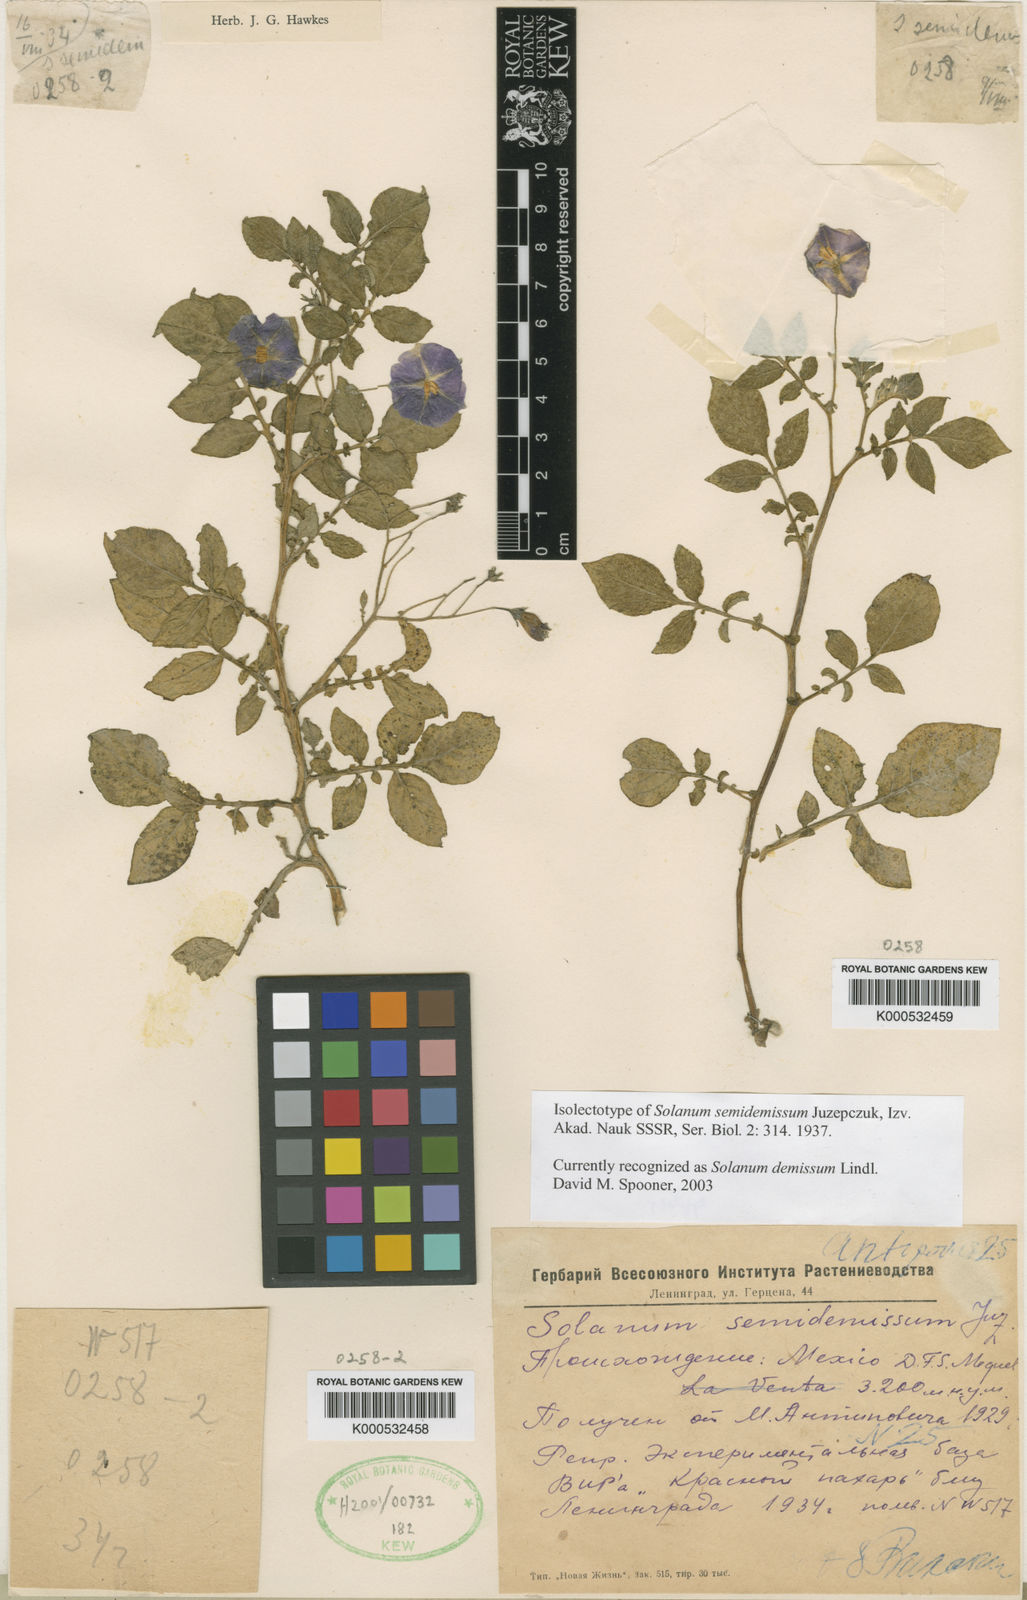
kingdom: Plantae
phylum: Tracheophyta
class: Magnoliopsida
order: Solanales
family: Solanaceae
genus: Solanum
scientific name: Solanum demissum
